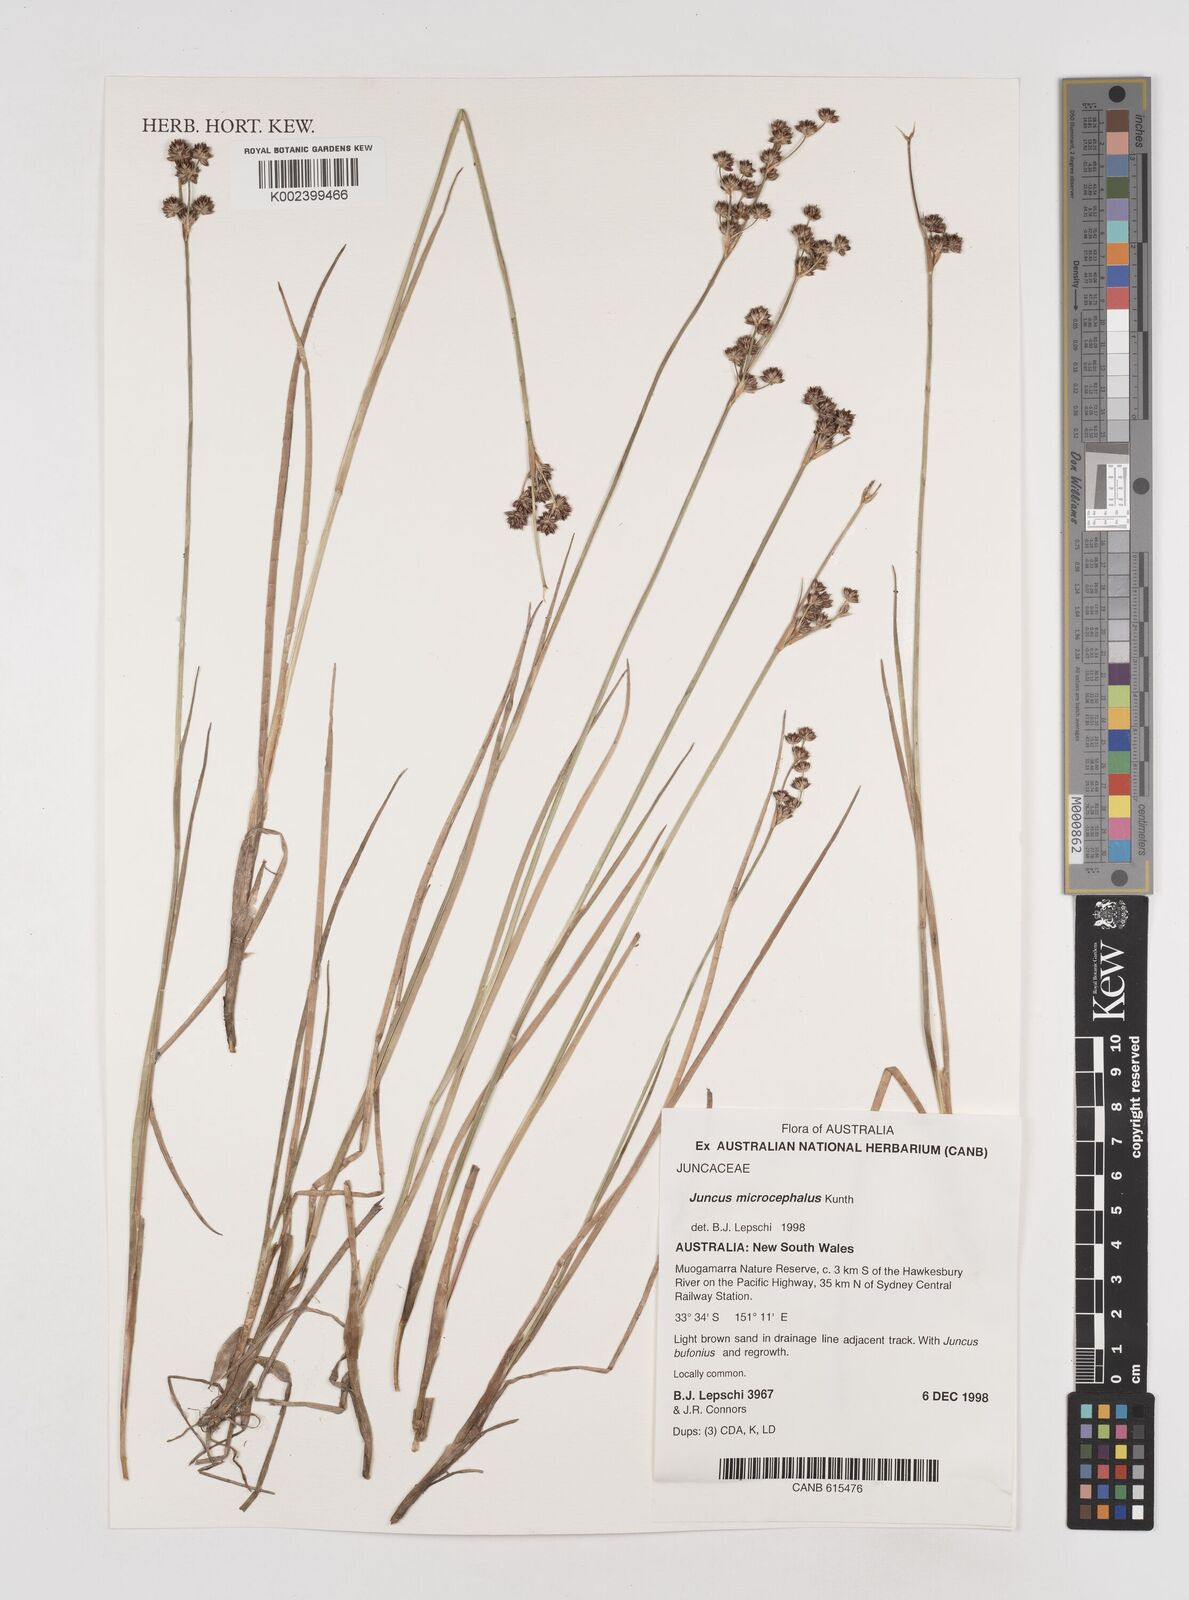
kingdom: Plantae
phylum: Tracheophyta
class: Liliopsida
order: Poales
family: Juncaceae
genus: Juncus
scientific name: Juncus microcephalus
